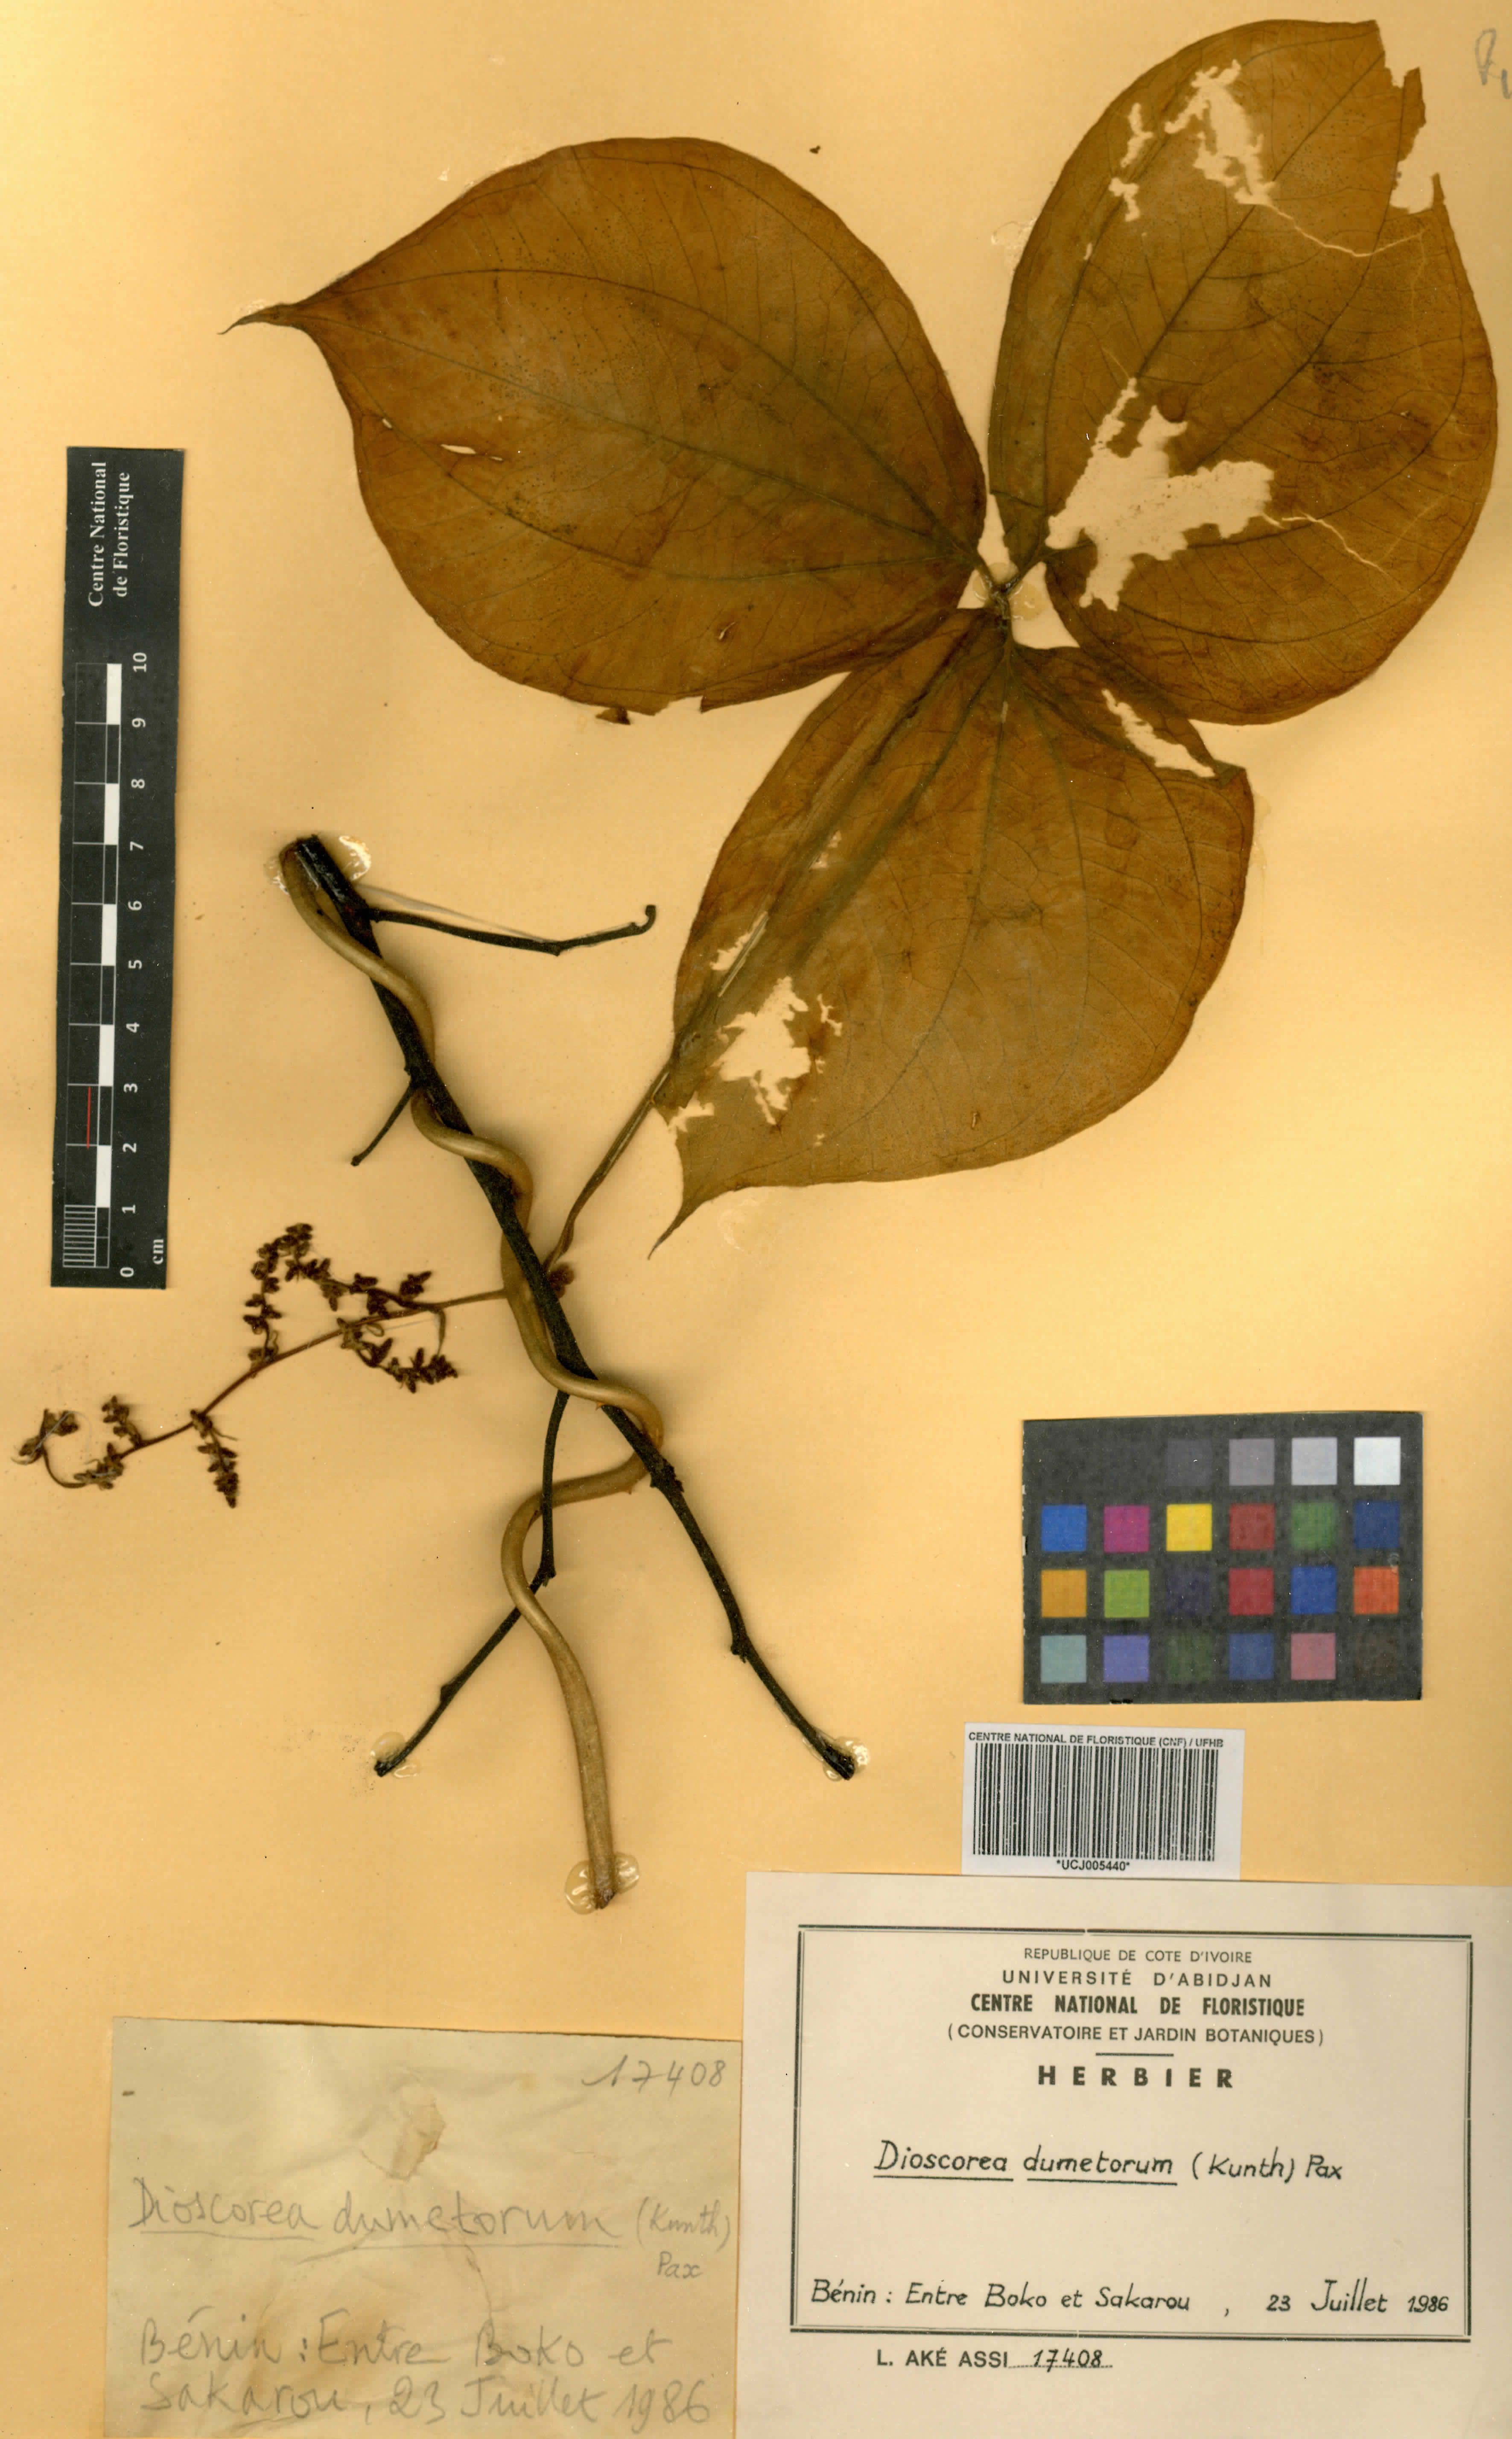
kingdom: Plantae
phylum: Tracheophyta
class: Liliopsida
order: Dioscoreales
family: Dioscoreaceae
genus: Dioscorea
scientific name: Dioscorea dumetorum
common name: African bitter yam
